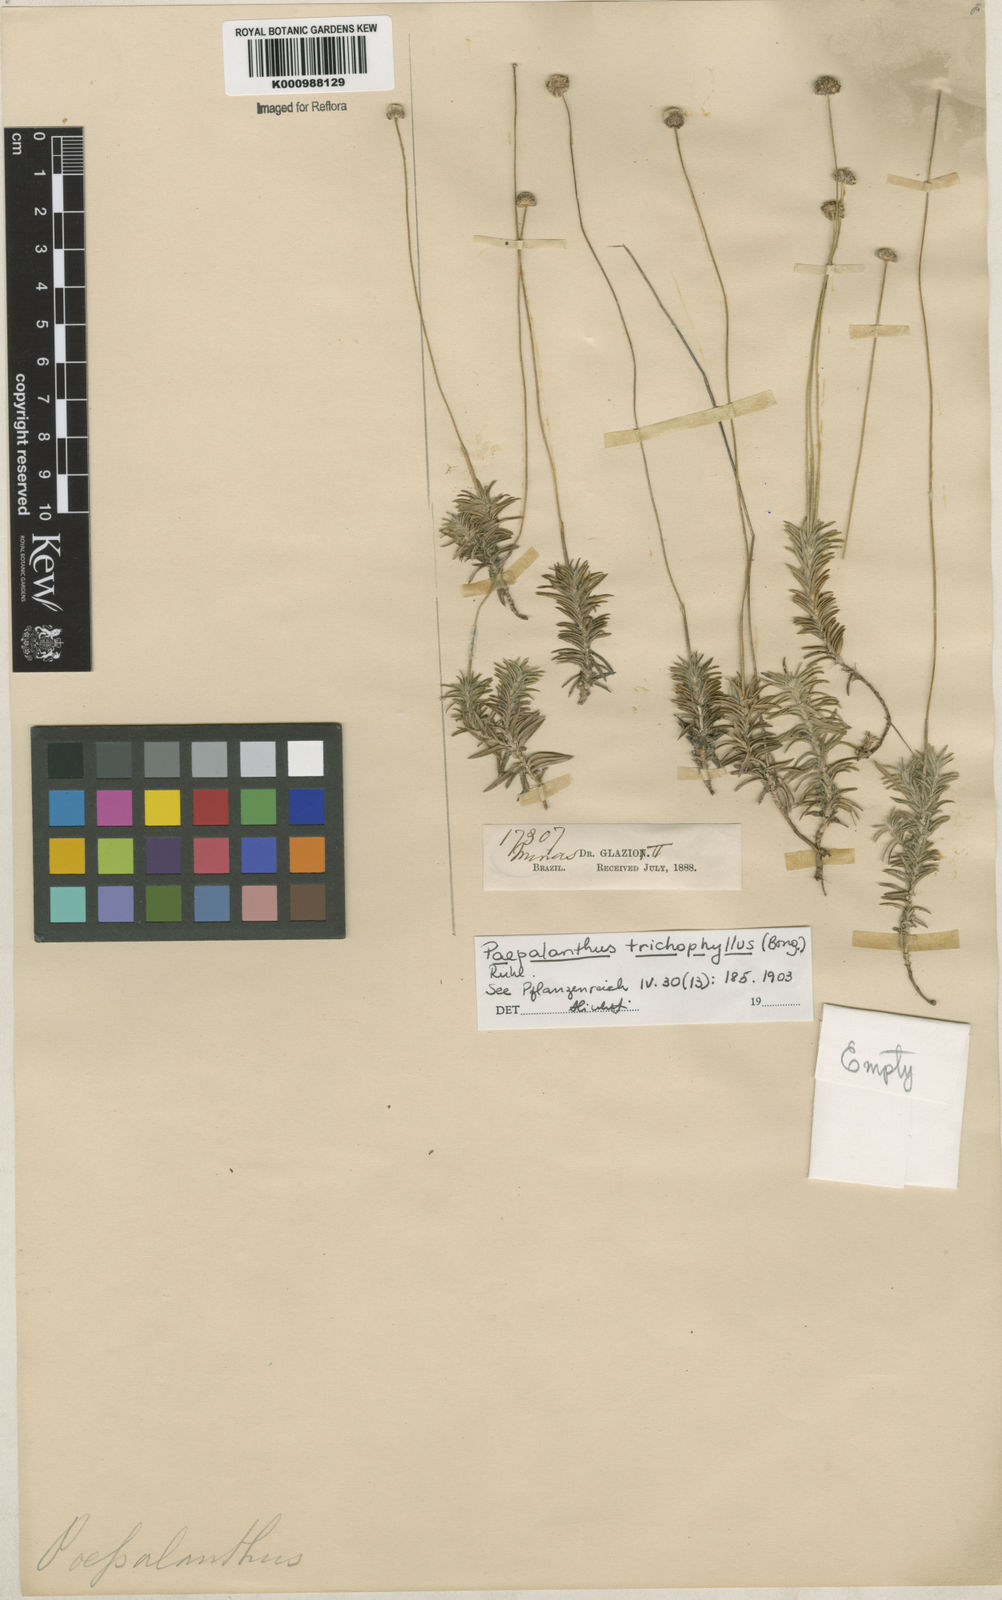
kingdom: Plantae
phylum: Tracheophyta
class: Liliopsida
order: Poales
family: Eriocaulaceae
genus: Paepalanthus
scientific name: Paepalanthus
